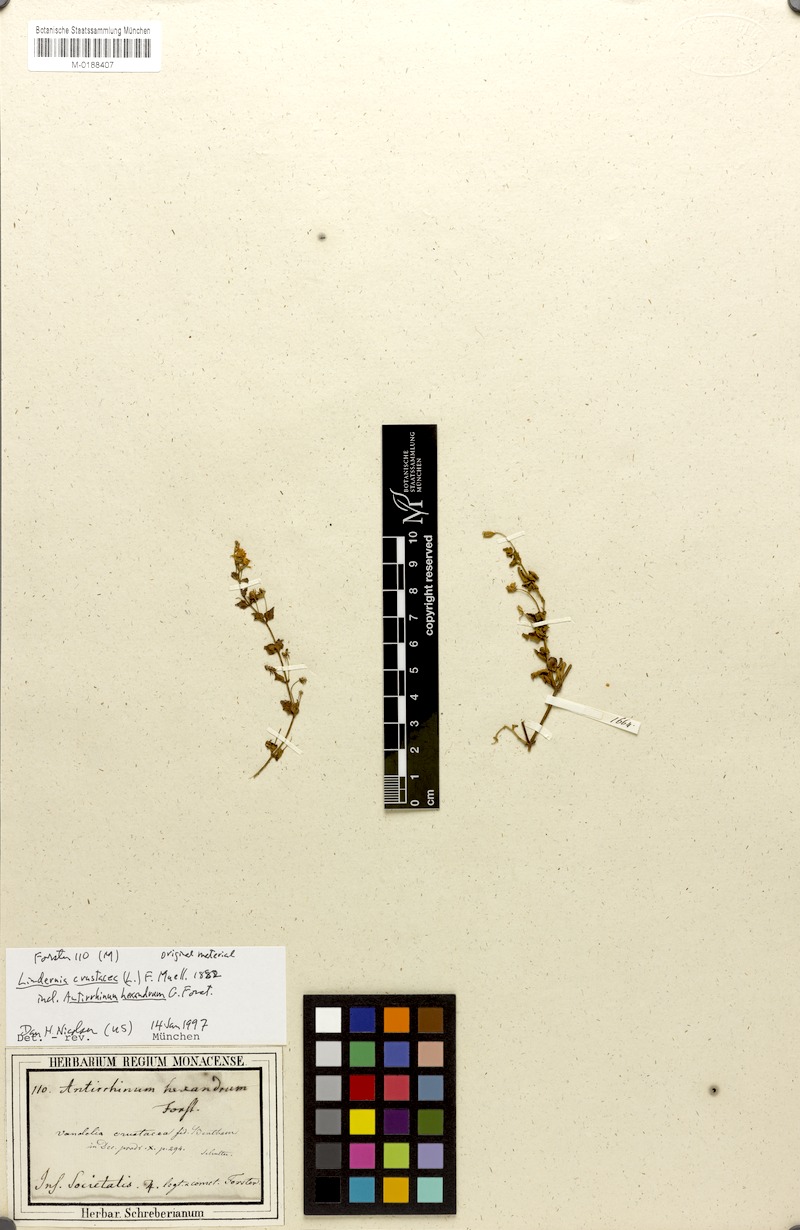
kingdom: Plantae
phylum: Tracheophyta
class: Magnoliopsida
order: Lamiales
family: Linderniaceae
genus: Torenia
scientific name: Torenia crustacea
